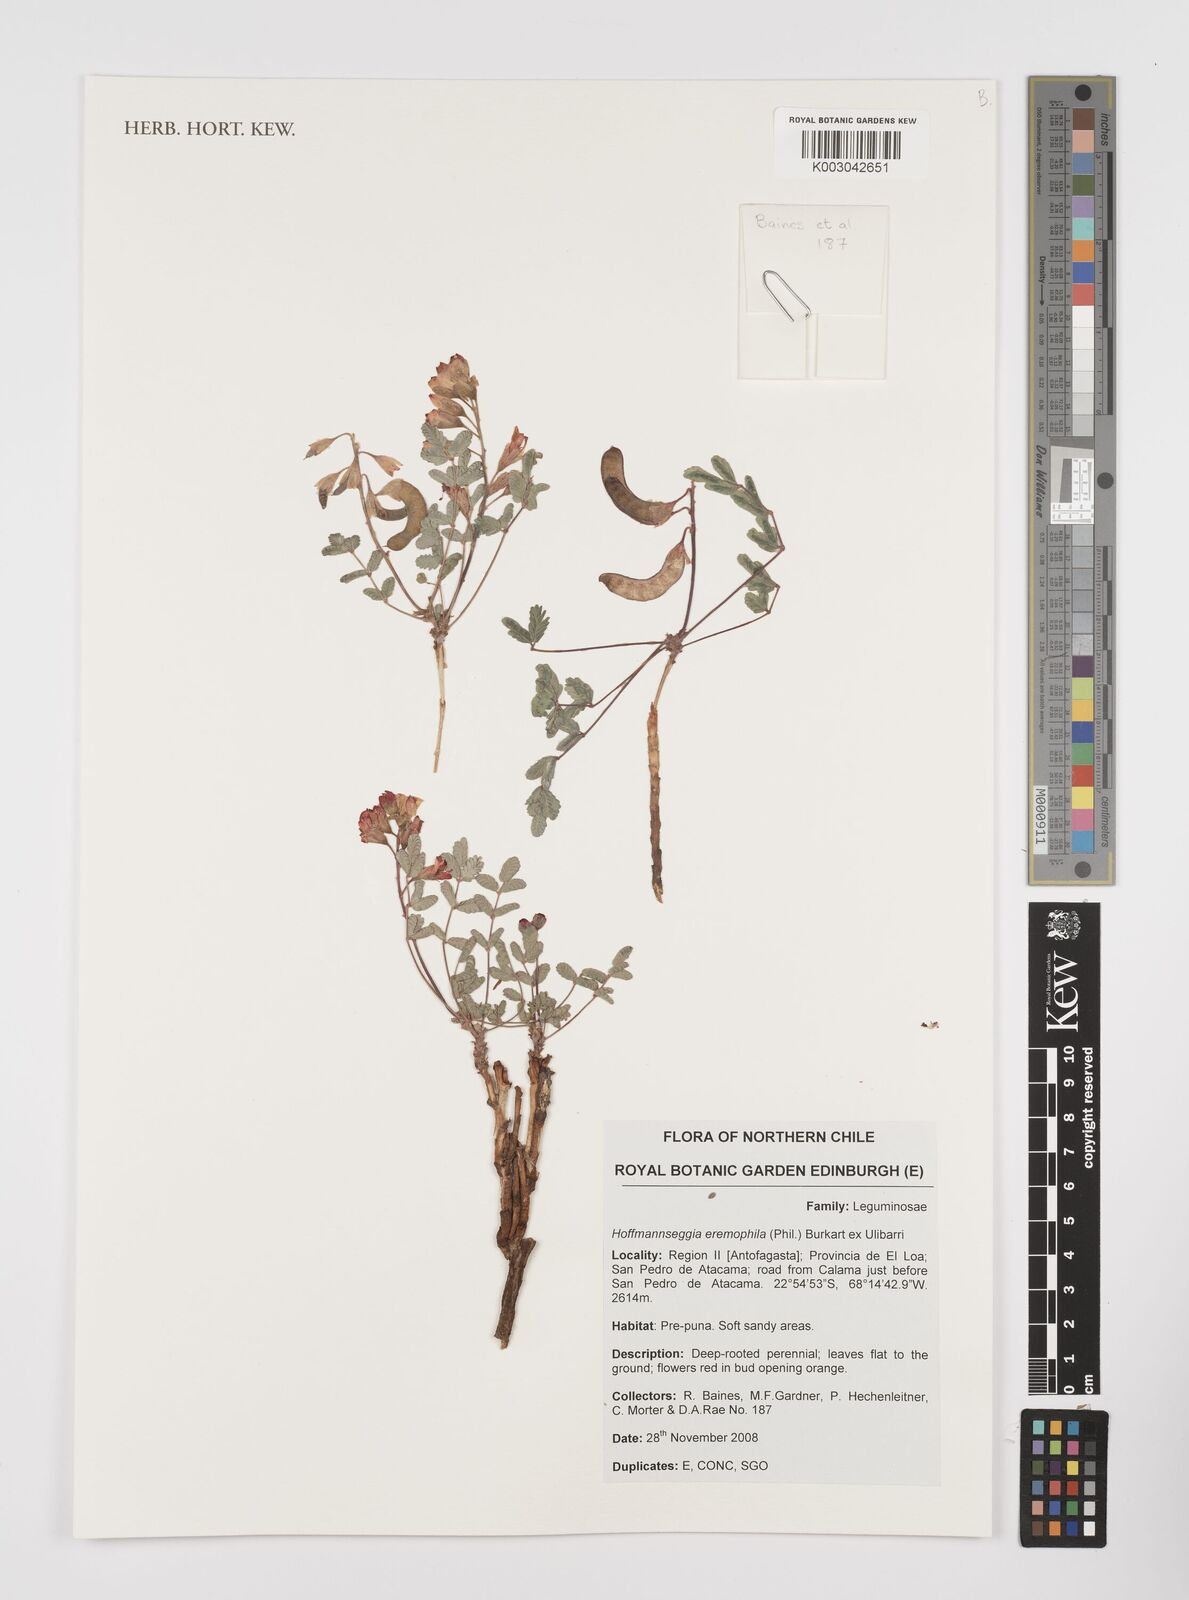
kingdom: Plantae
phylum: Tracheophyta
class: Magnoliopsida
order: Fabales
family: Fabaceae
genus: Hoffmannseggia
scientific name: Hoffmannseggia eremophila
